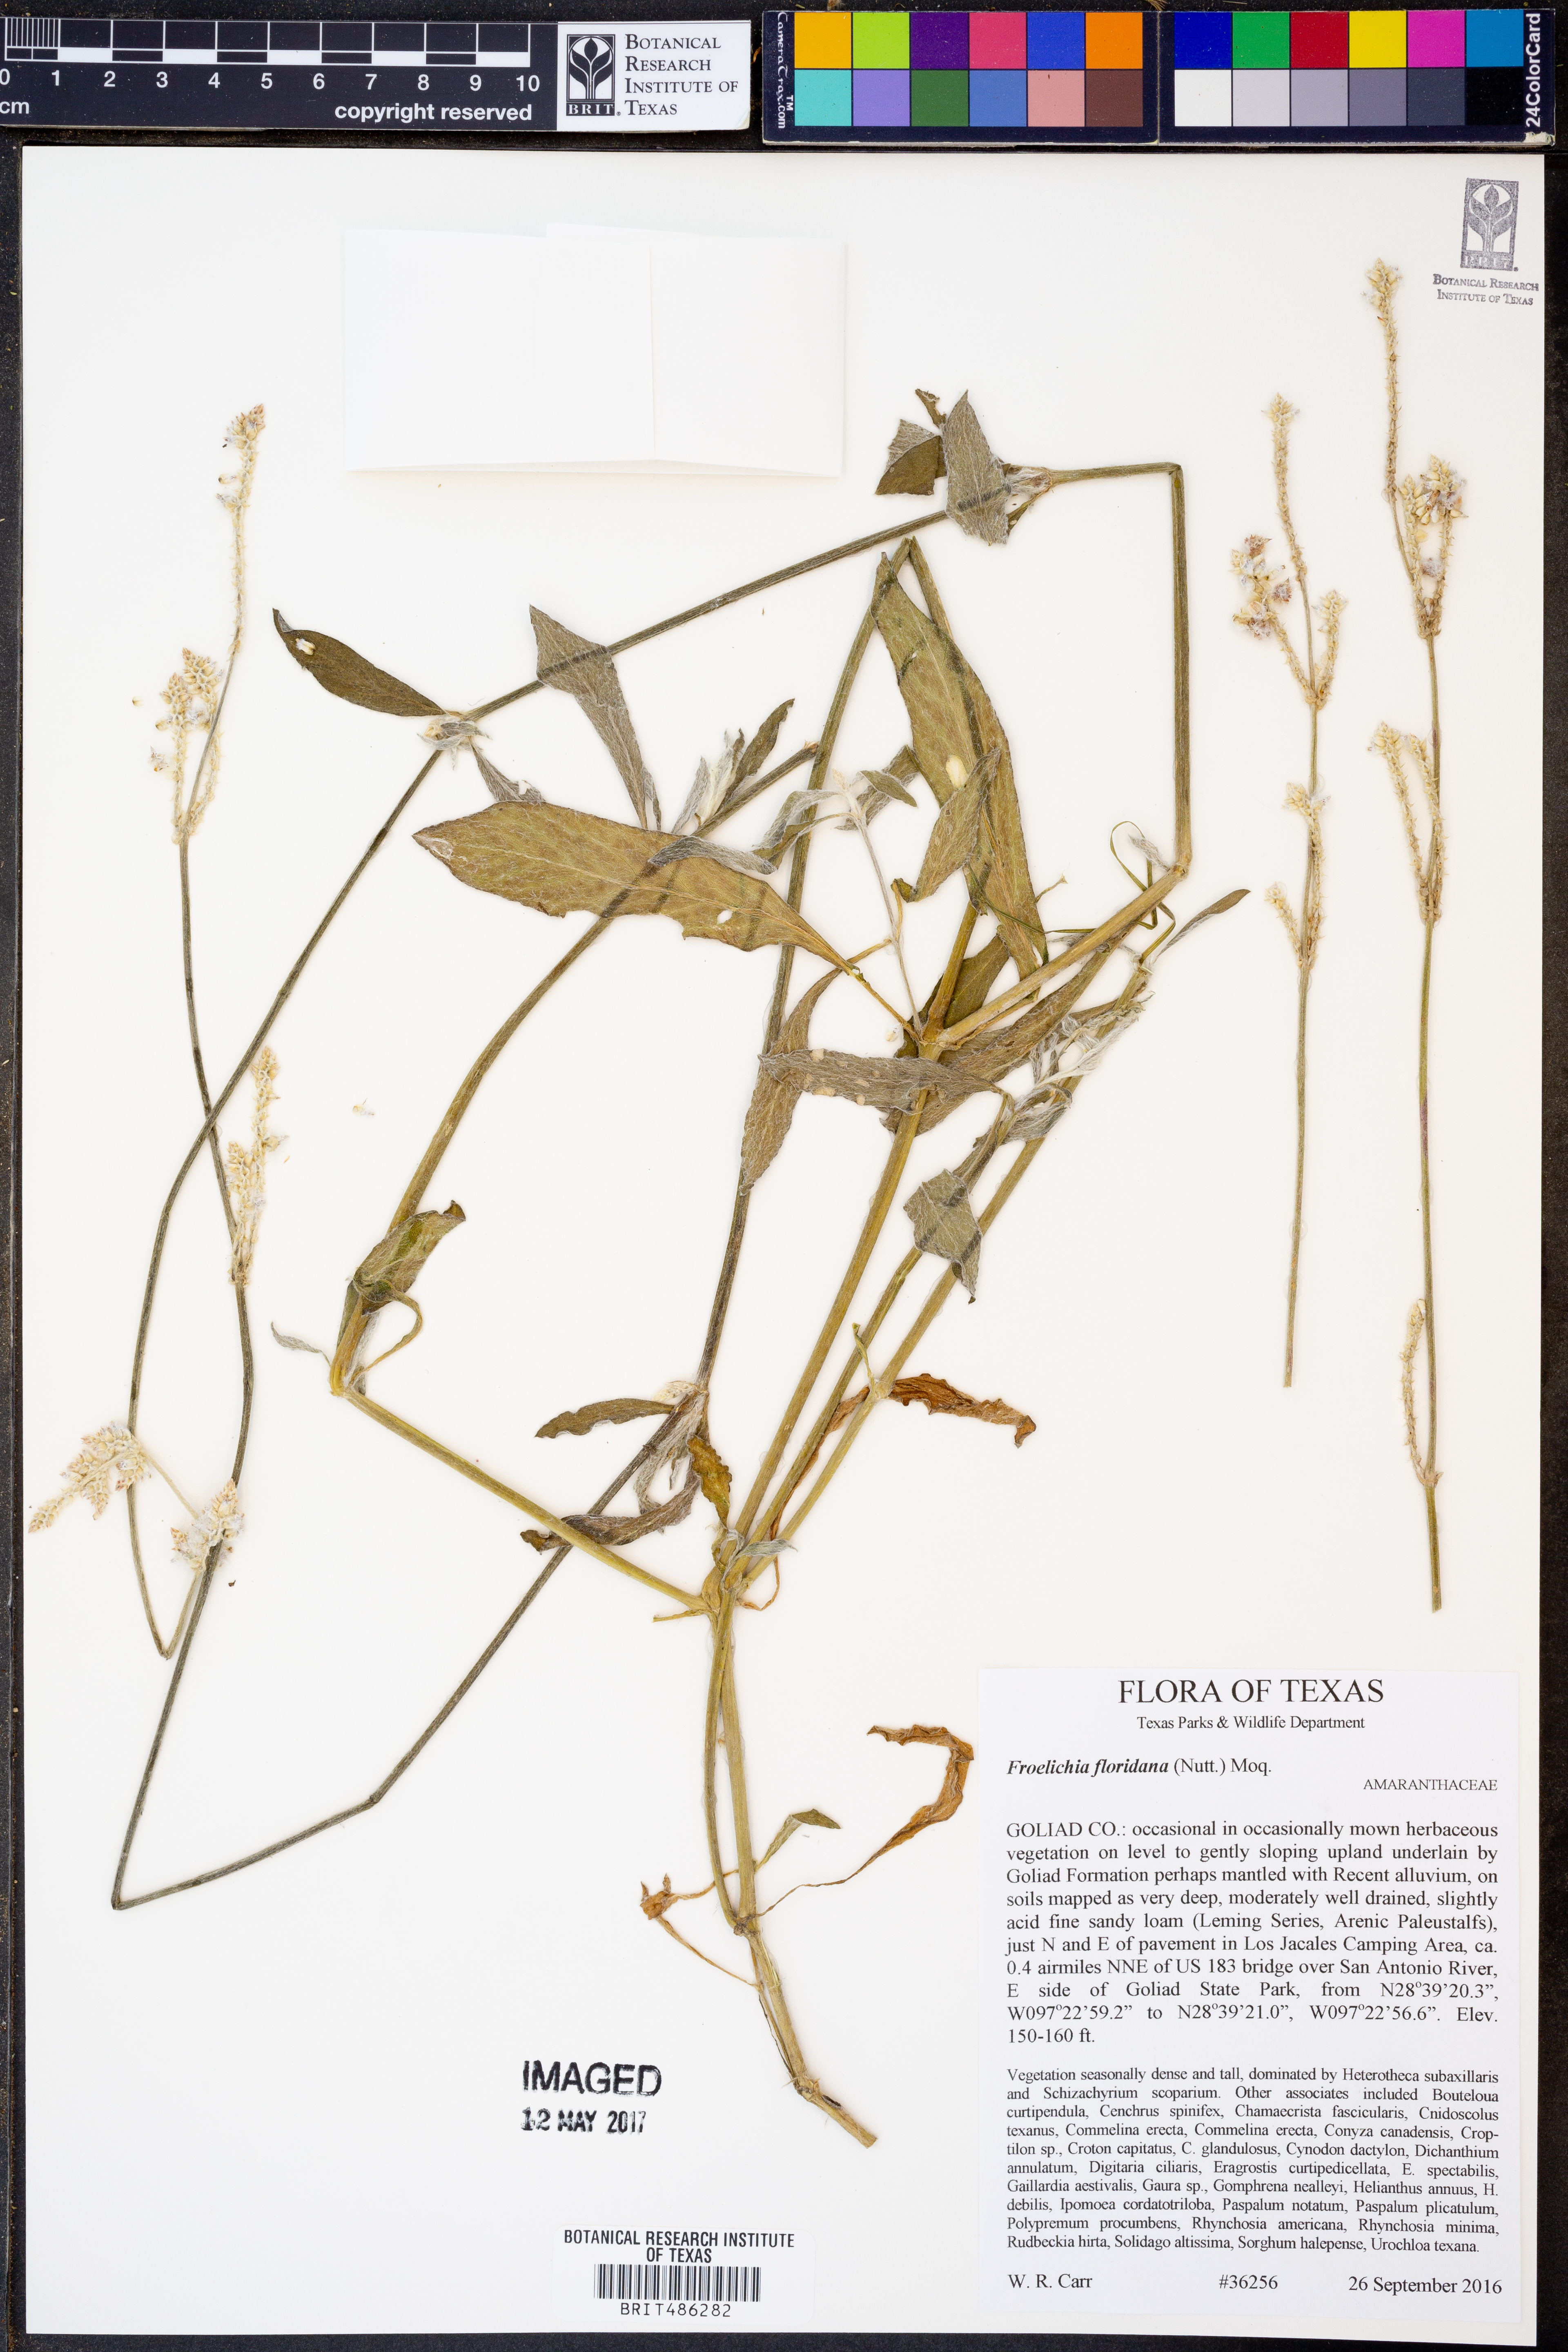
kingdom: Plantae
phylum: Tracheophyta
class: Magnoliopsida
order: Caryophyllales
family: Amaranthaceae
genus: Froelichia
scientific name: Froelichia floridana
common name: Florida snake-cotton
